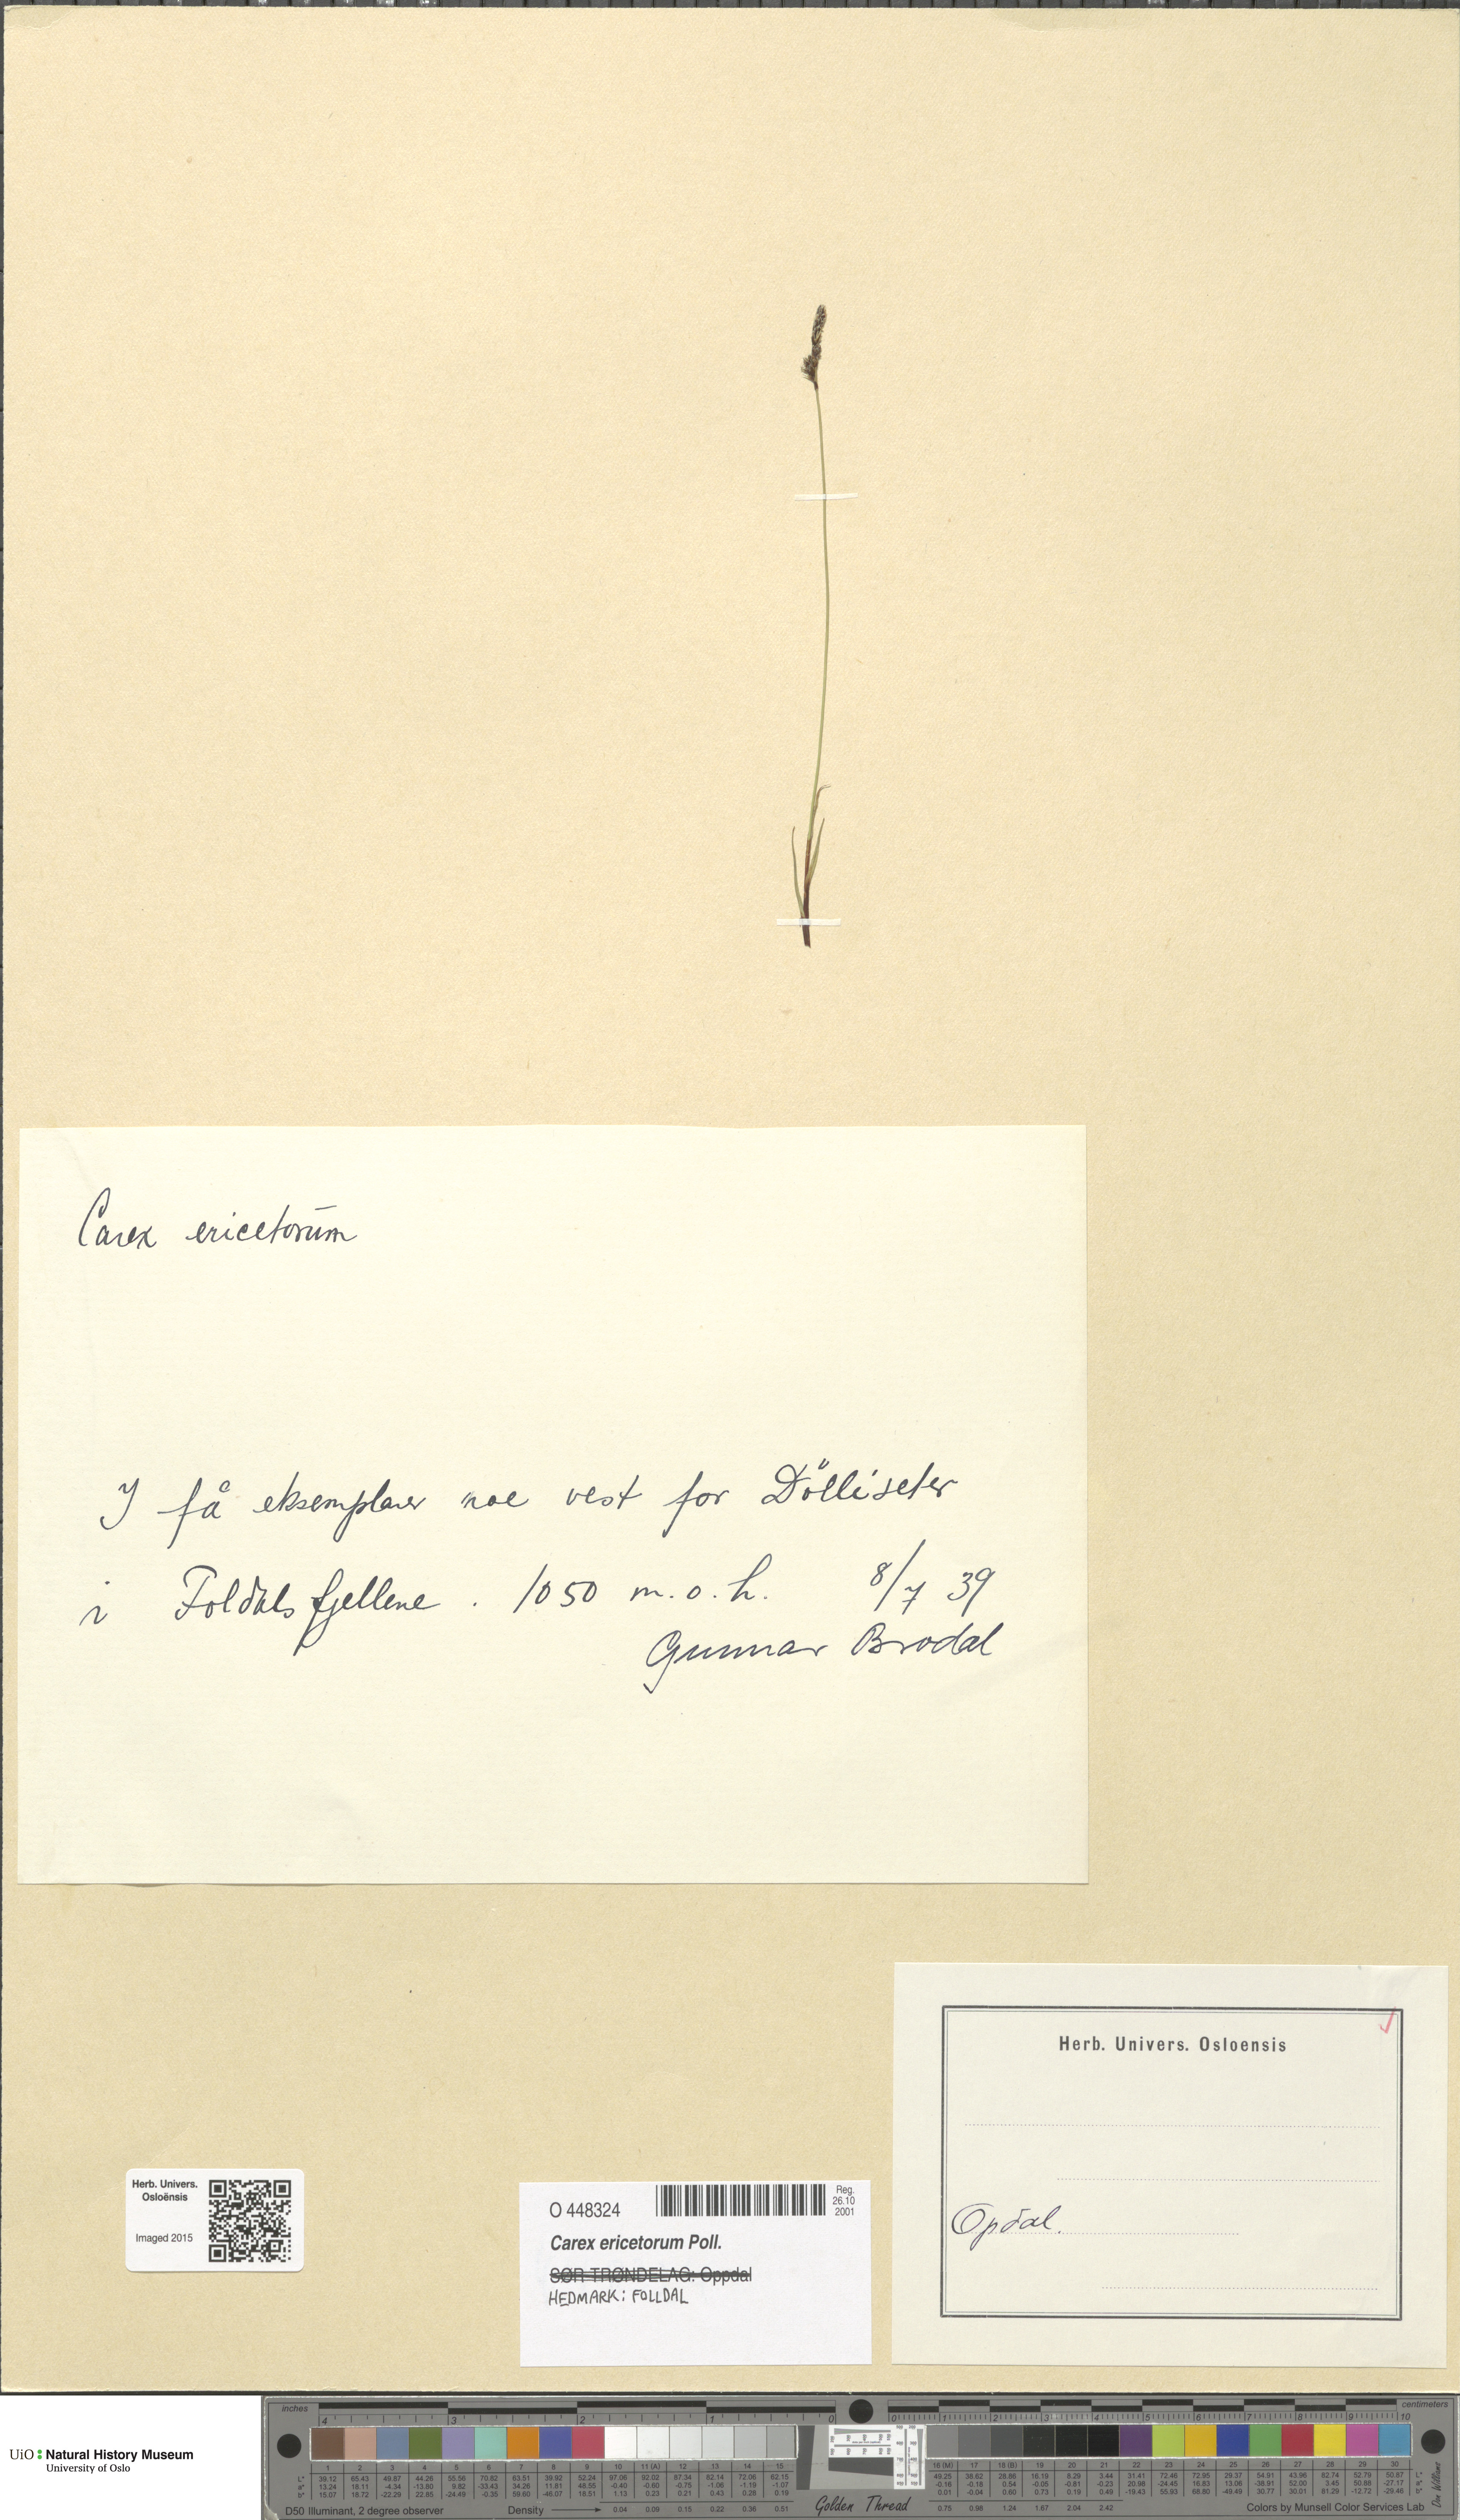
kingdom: Plantae
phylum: Tracheophyta
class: Liliopsida
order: Poales
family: Cyperaceae
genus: Carex
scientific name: Carex ericetorum
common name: Rare spring-sedge
